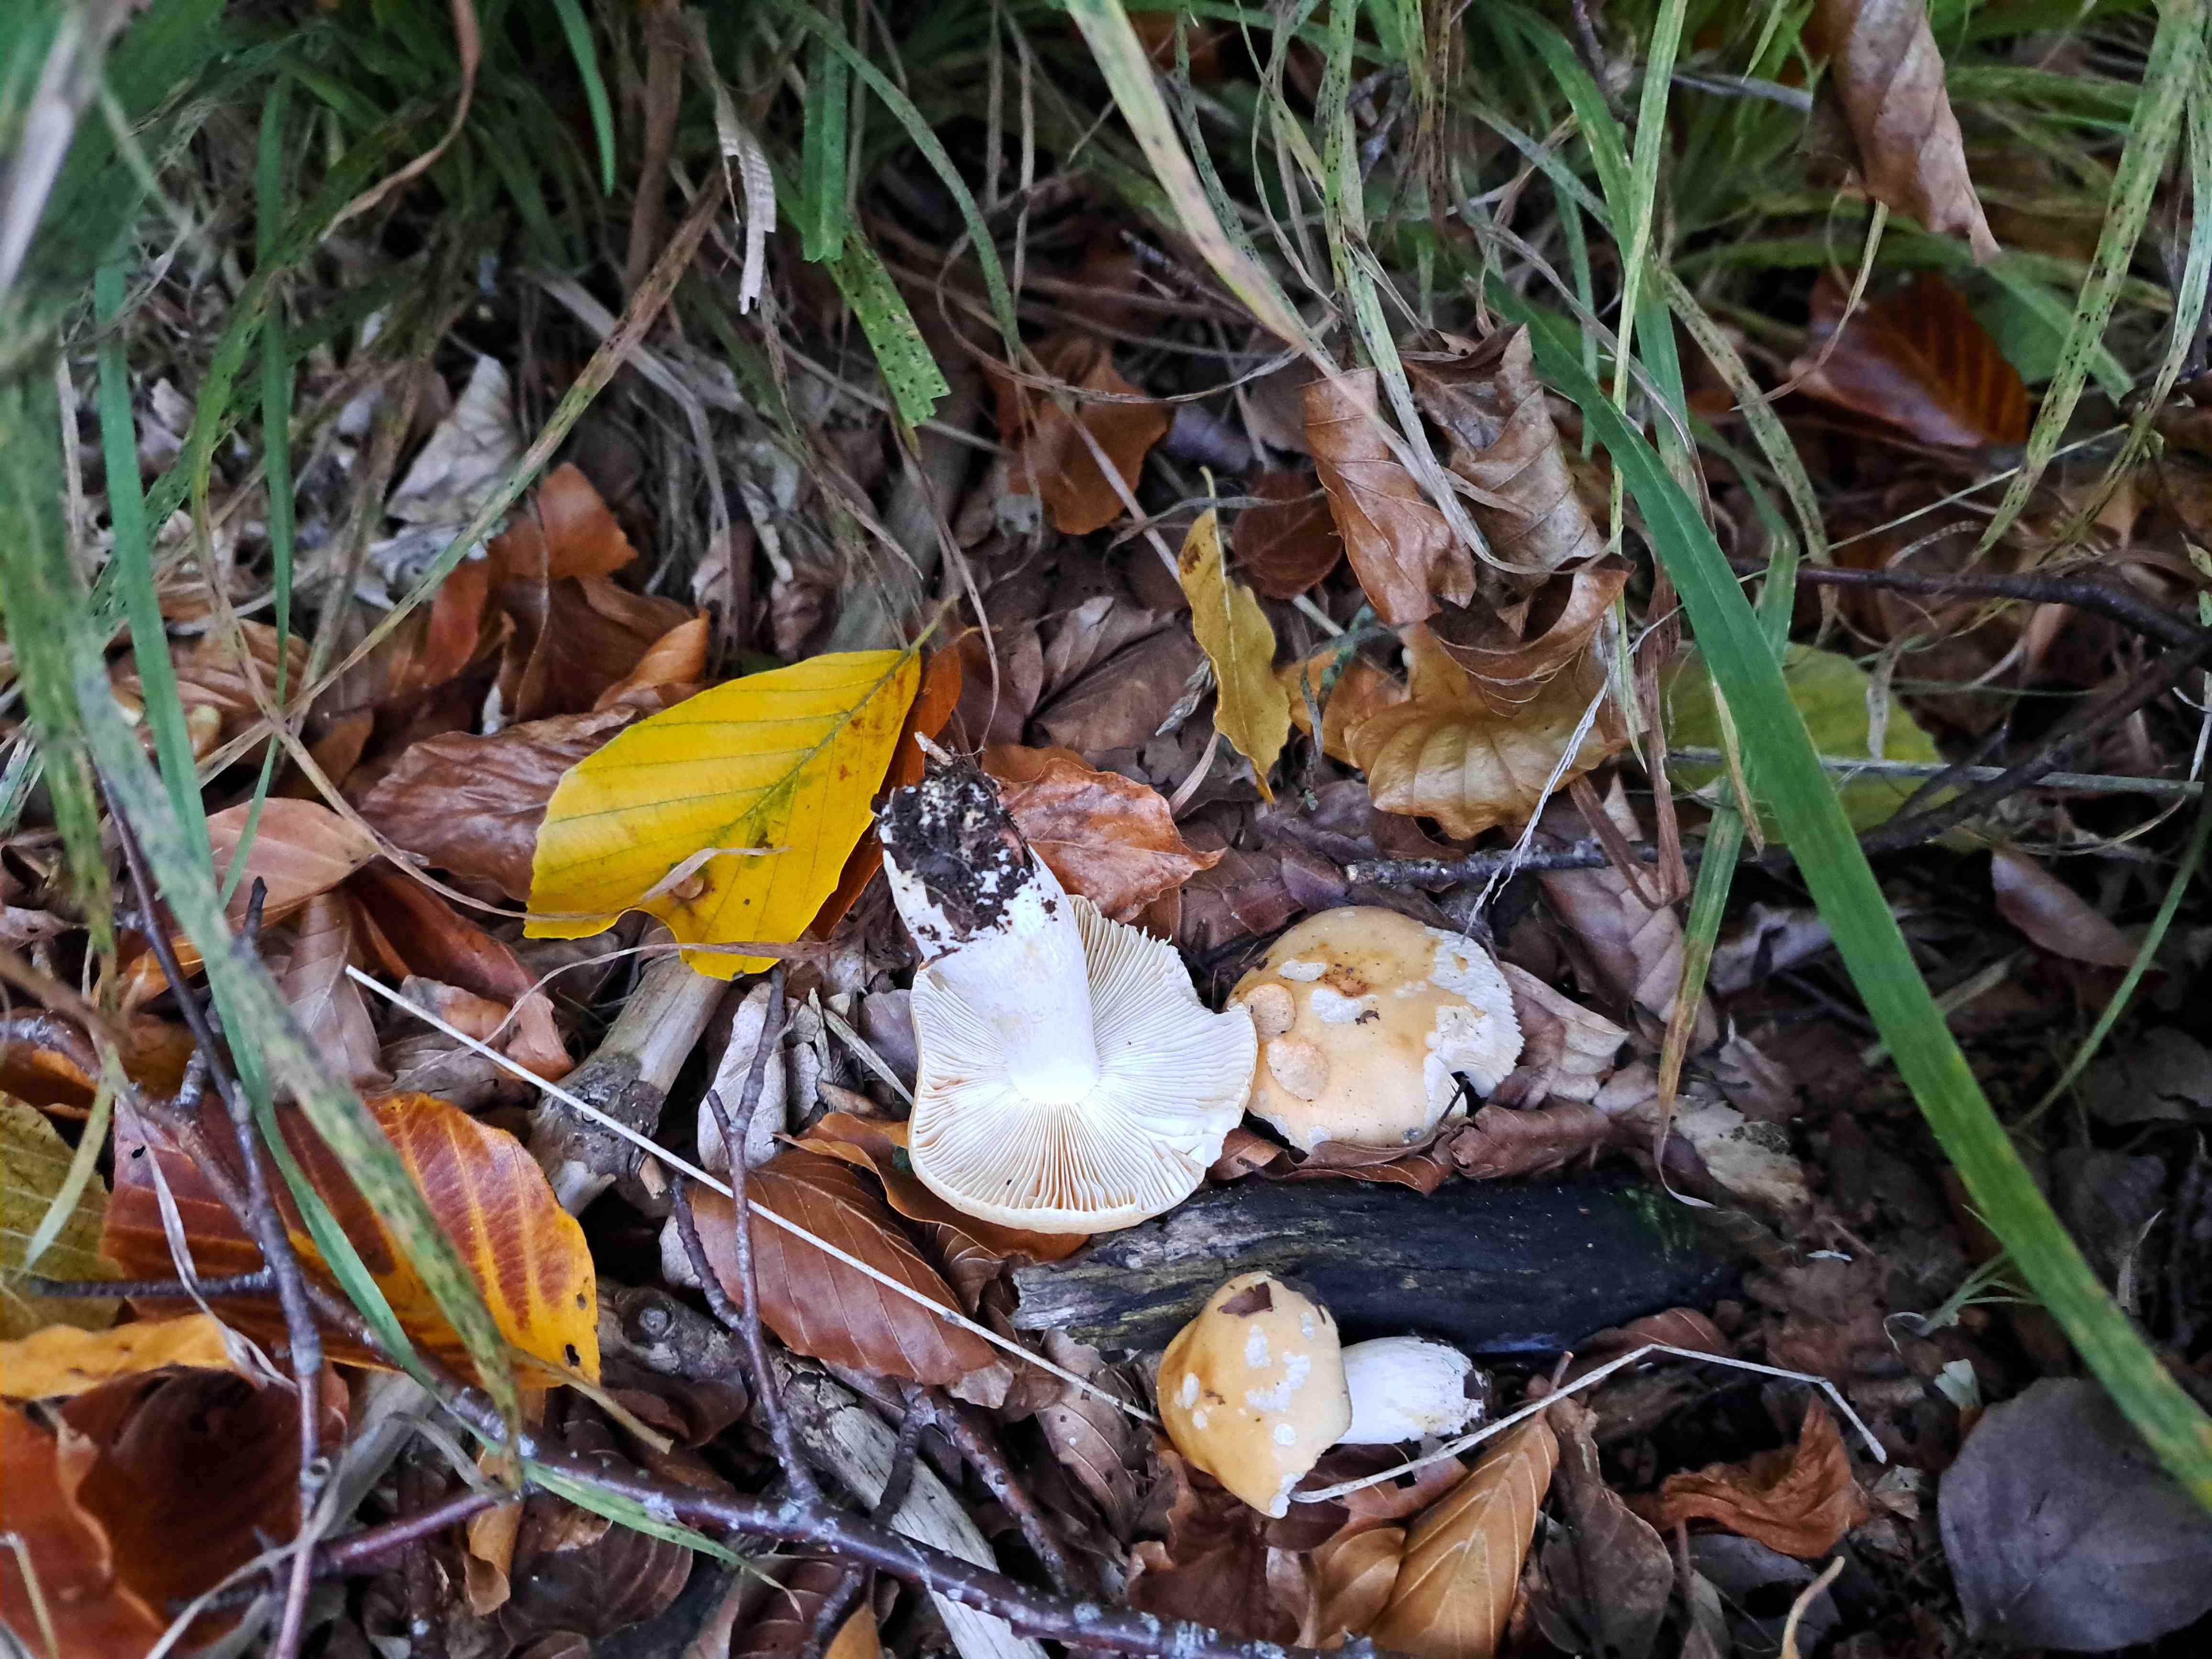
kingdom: Fungi
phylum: Basidiomycota
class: Agaricomycetes
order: Russulales
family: Russulaceae
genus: Russula
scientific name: Russula ochroleuca
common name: okkergul skørhat
